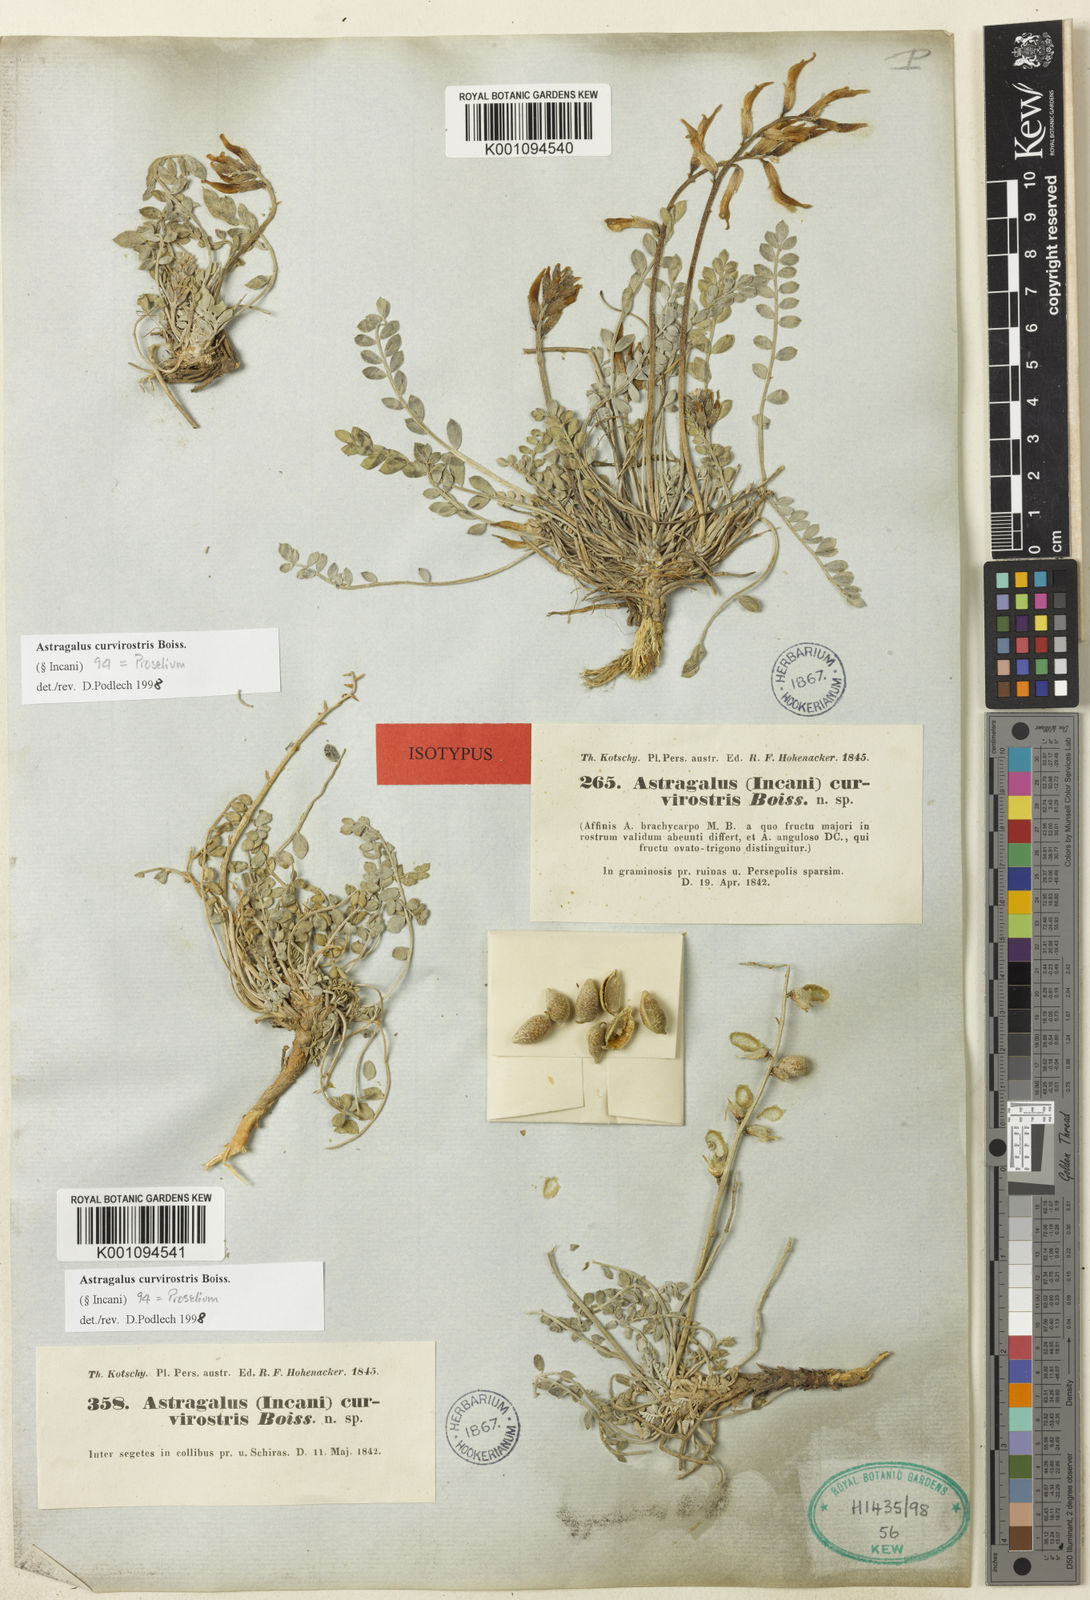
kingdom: Plantae
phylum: Tracheophyta
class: Magnoliopsida
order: Fabales
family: Fabaceae
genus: Astragalus
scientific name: Astragalus
